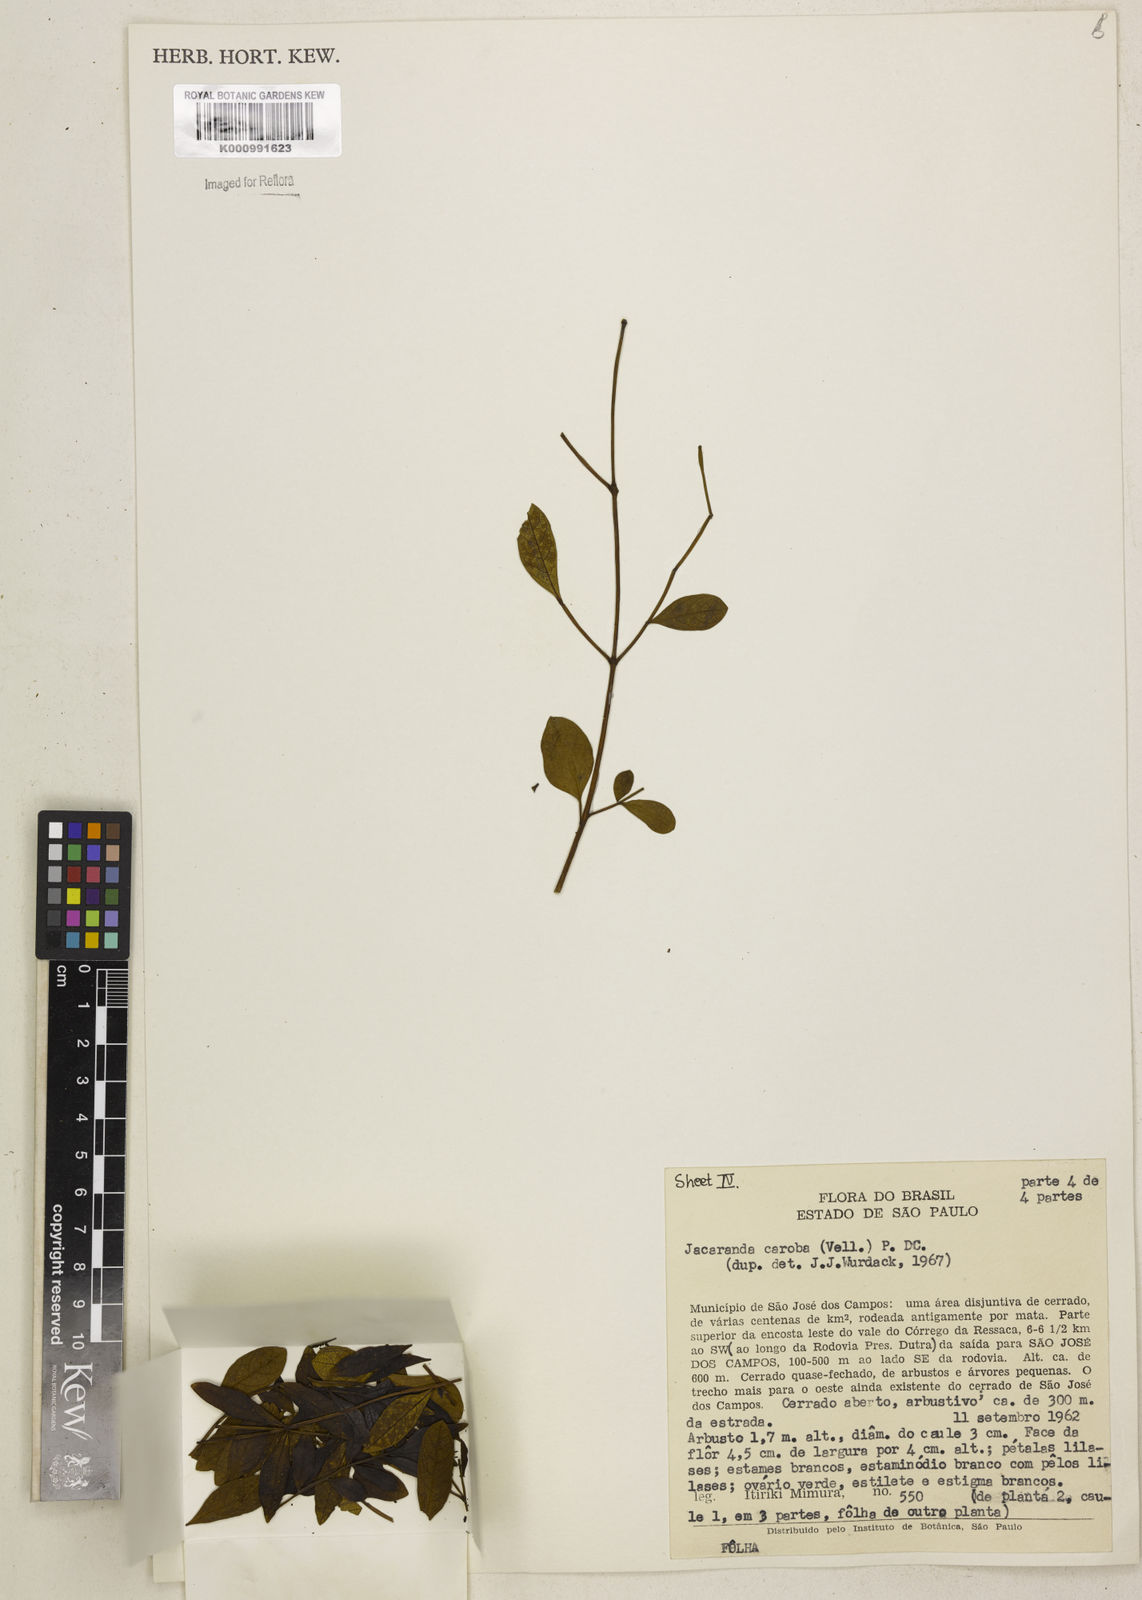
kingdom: Plantae
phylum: Tracheophyta
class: Magnoliopsida
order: Lamiales
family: Bignoniaceae
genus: Jacaranda
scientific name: Jacaranda caroba
